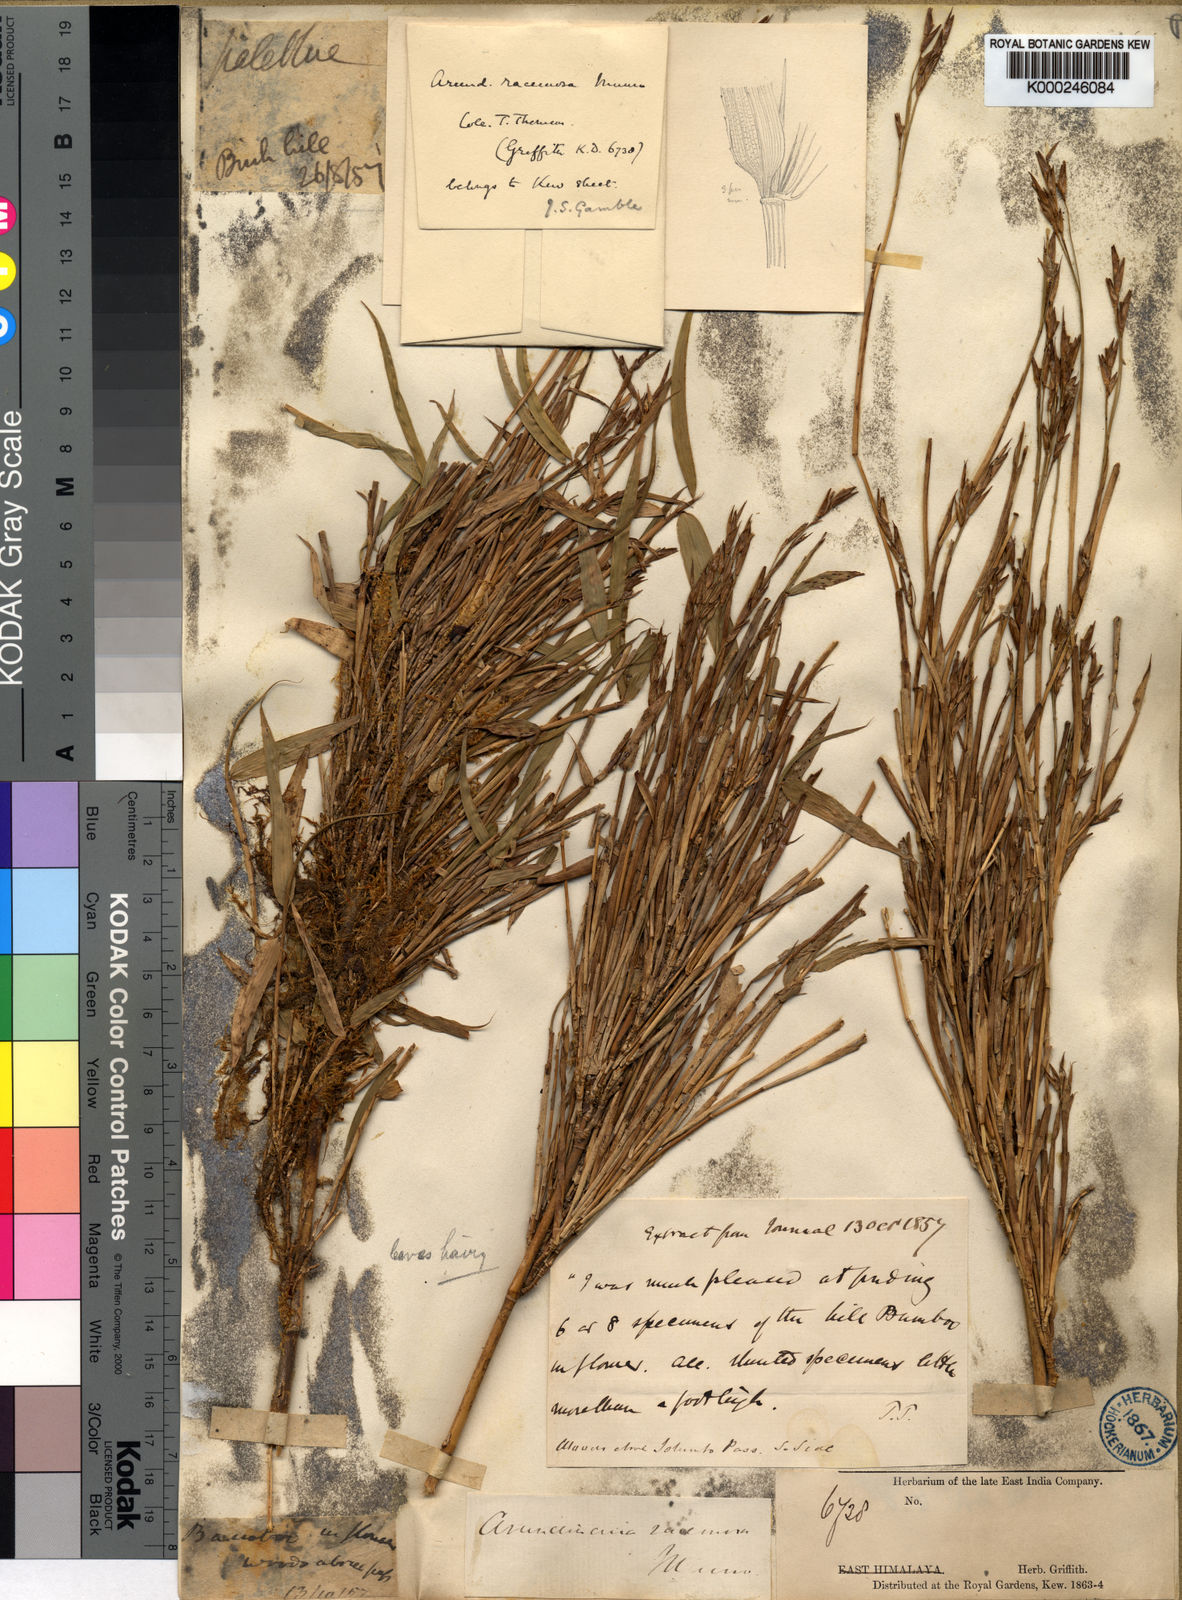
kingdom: Plantae
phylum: Tracheophyta
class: Liliopsida
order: Poales
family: Poaceae
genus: Sarocalamus
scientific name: Sarocalamus racemosus
